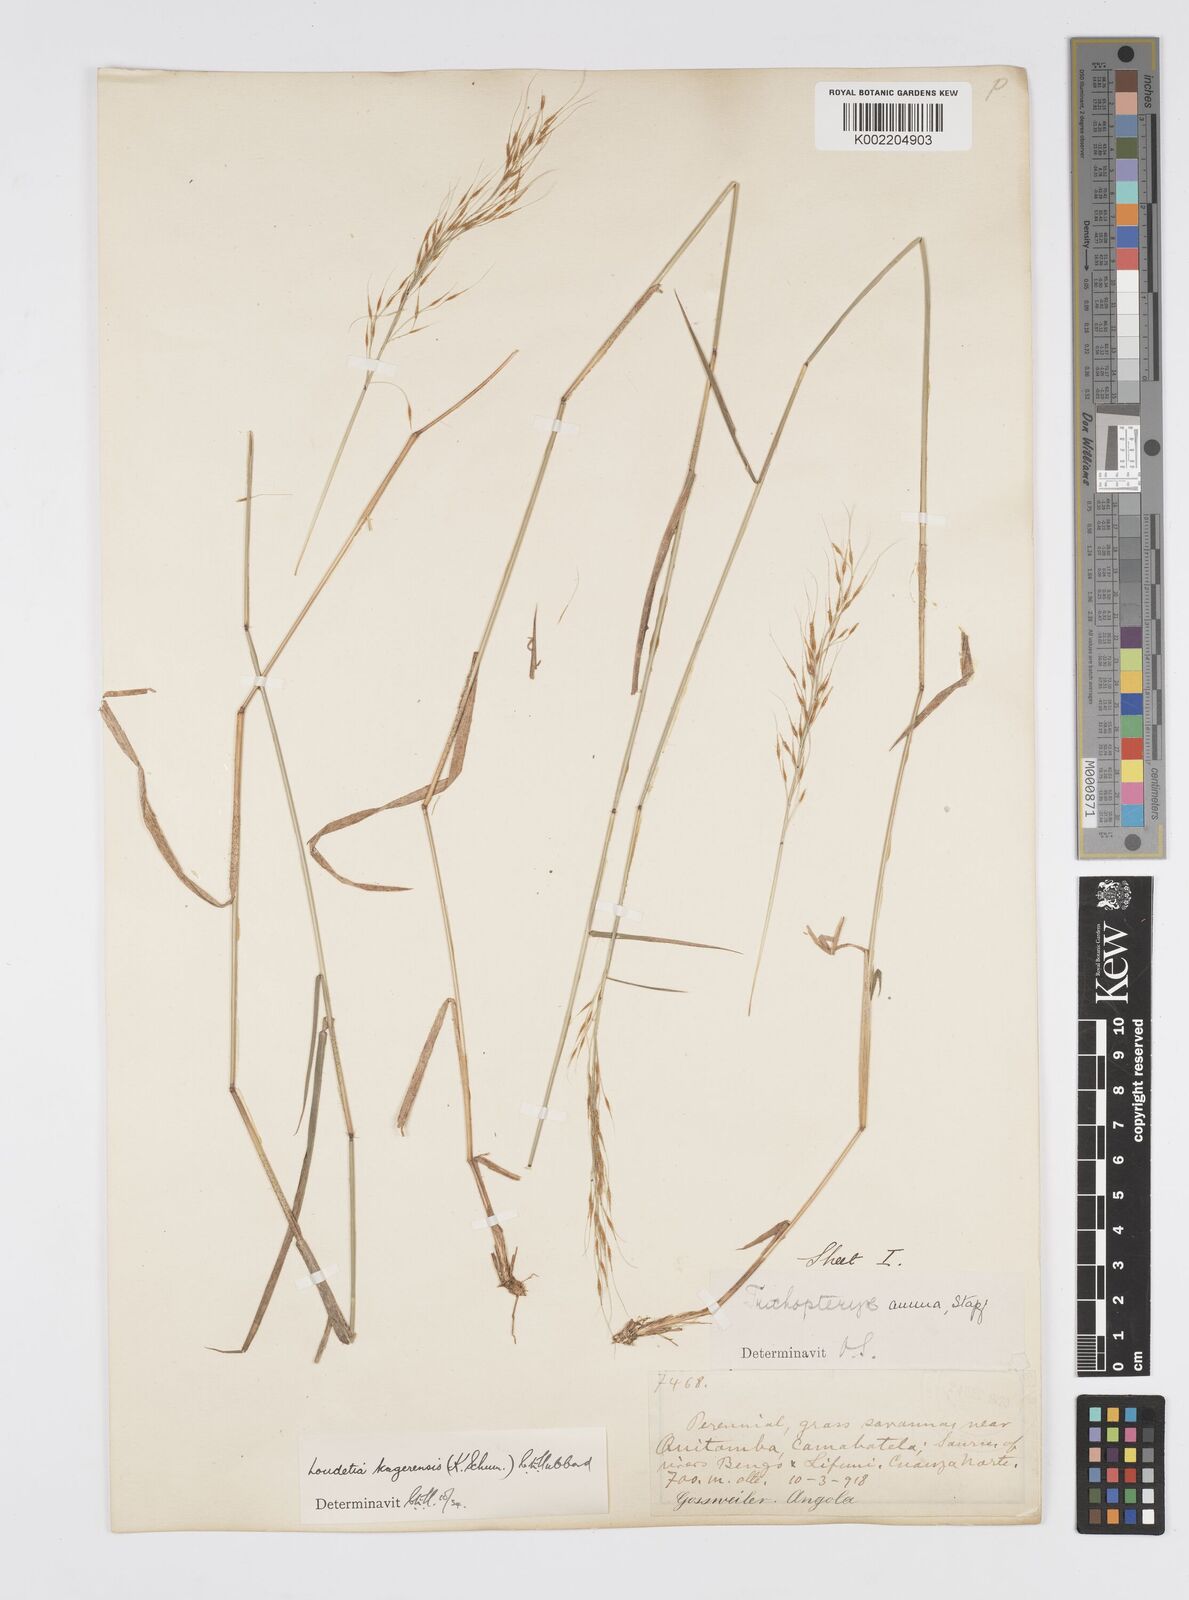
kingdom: Plantae
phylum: Tracheophyta
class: Liliopsida
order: Poales
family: Poaceae
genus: Loudetia
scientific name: Loudetia kagerensis
